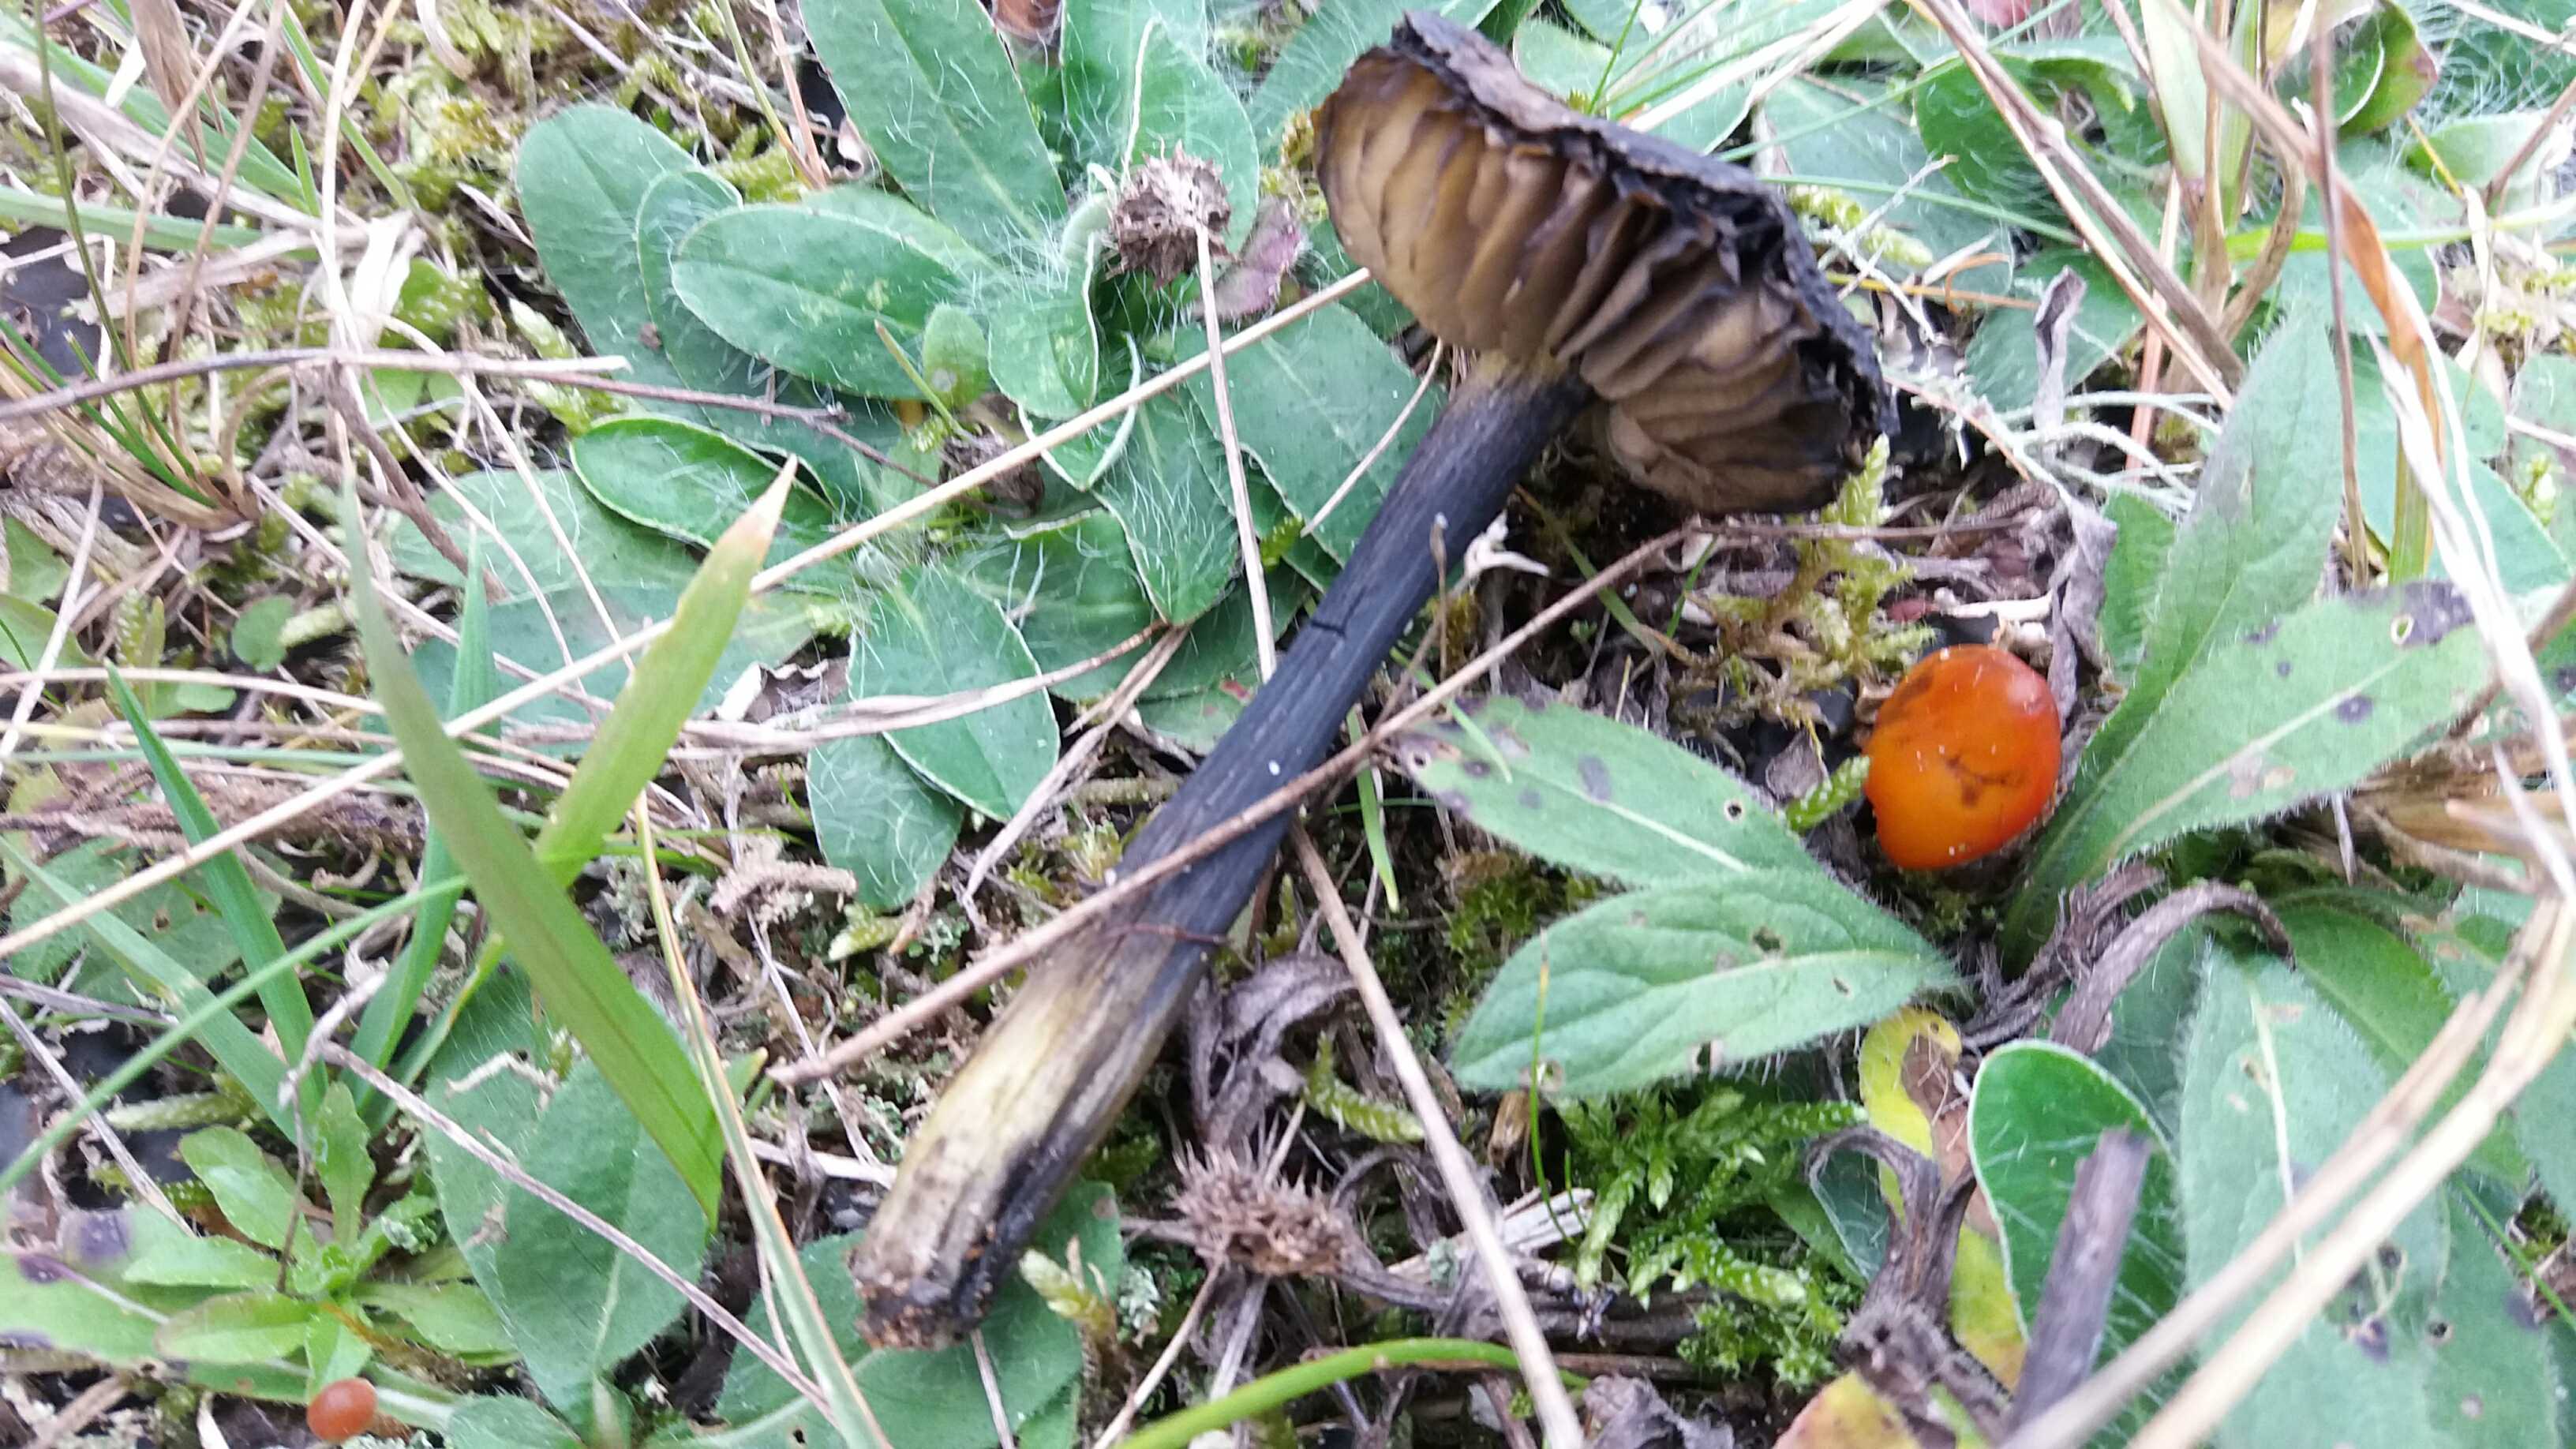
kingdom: Fungi
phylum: Basidiomycota
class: Agaricomycetes
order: Agaricales
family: Hygrophoraceae
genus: Hygrocybe
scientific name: Hygrocybe conica
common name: kegle-vokshat
